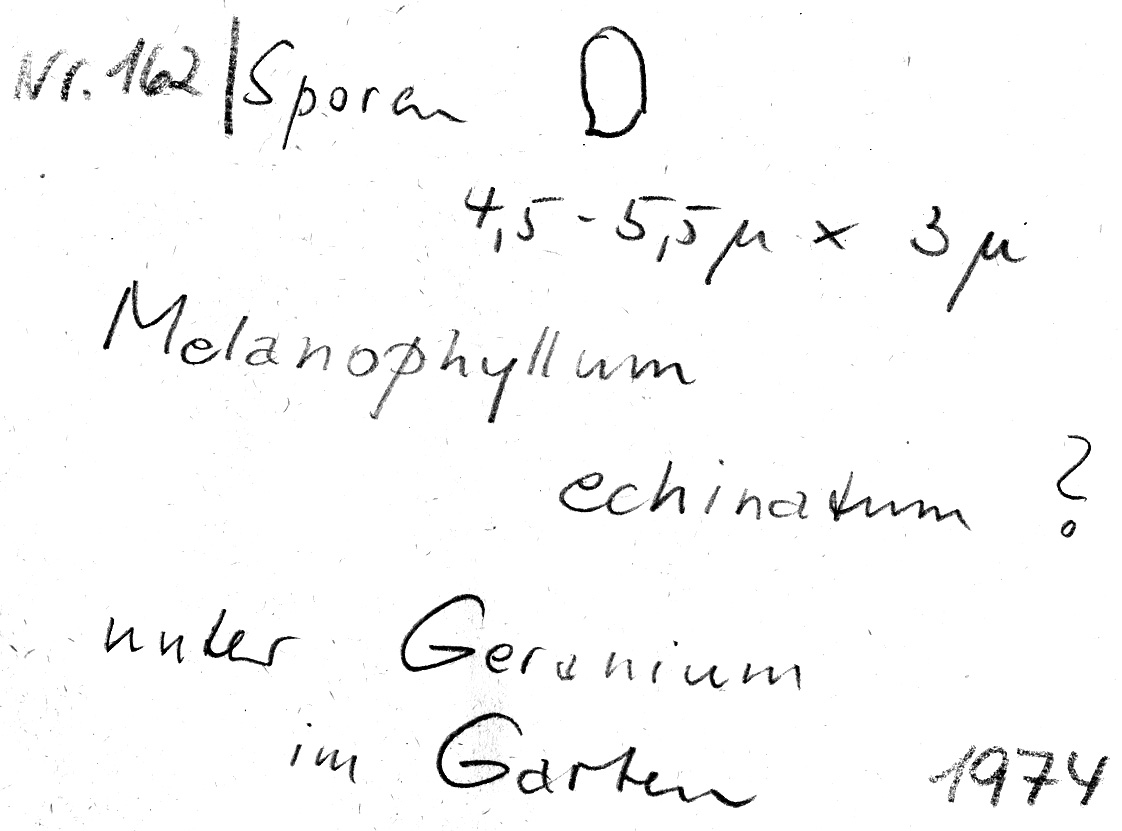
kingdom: Fungi
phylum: Basidiomycota
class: Agaricomycetes
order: Agaricales
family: Agaricaceae
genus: Melanophyllum
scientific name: Melanophyllum haematospermum
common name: Redspored dapperling
